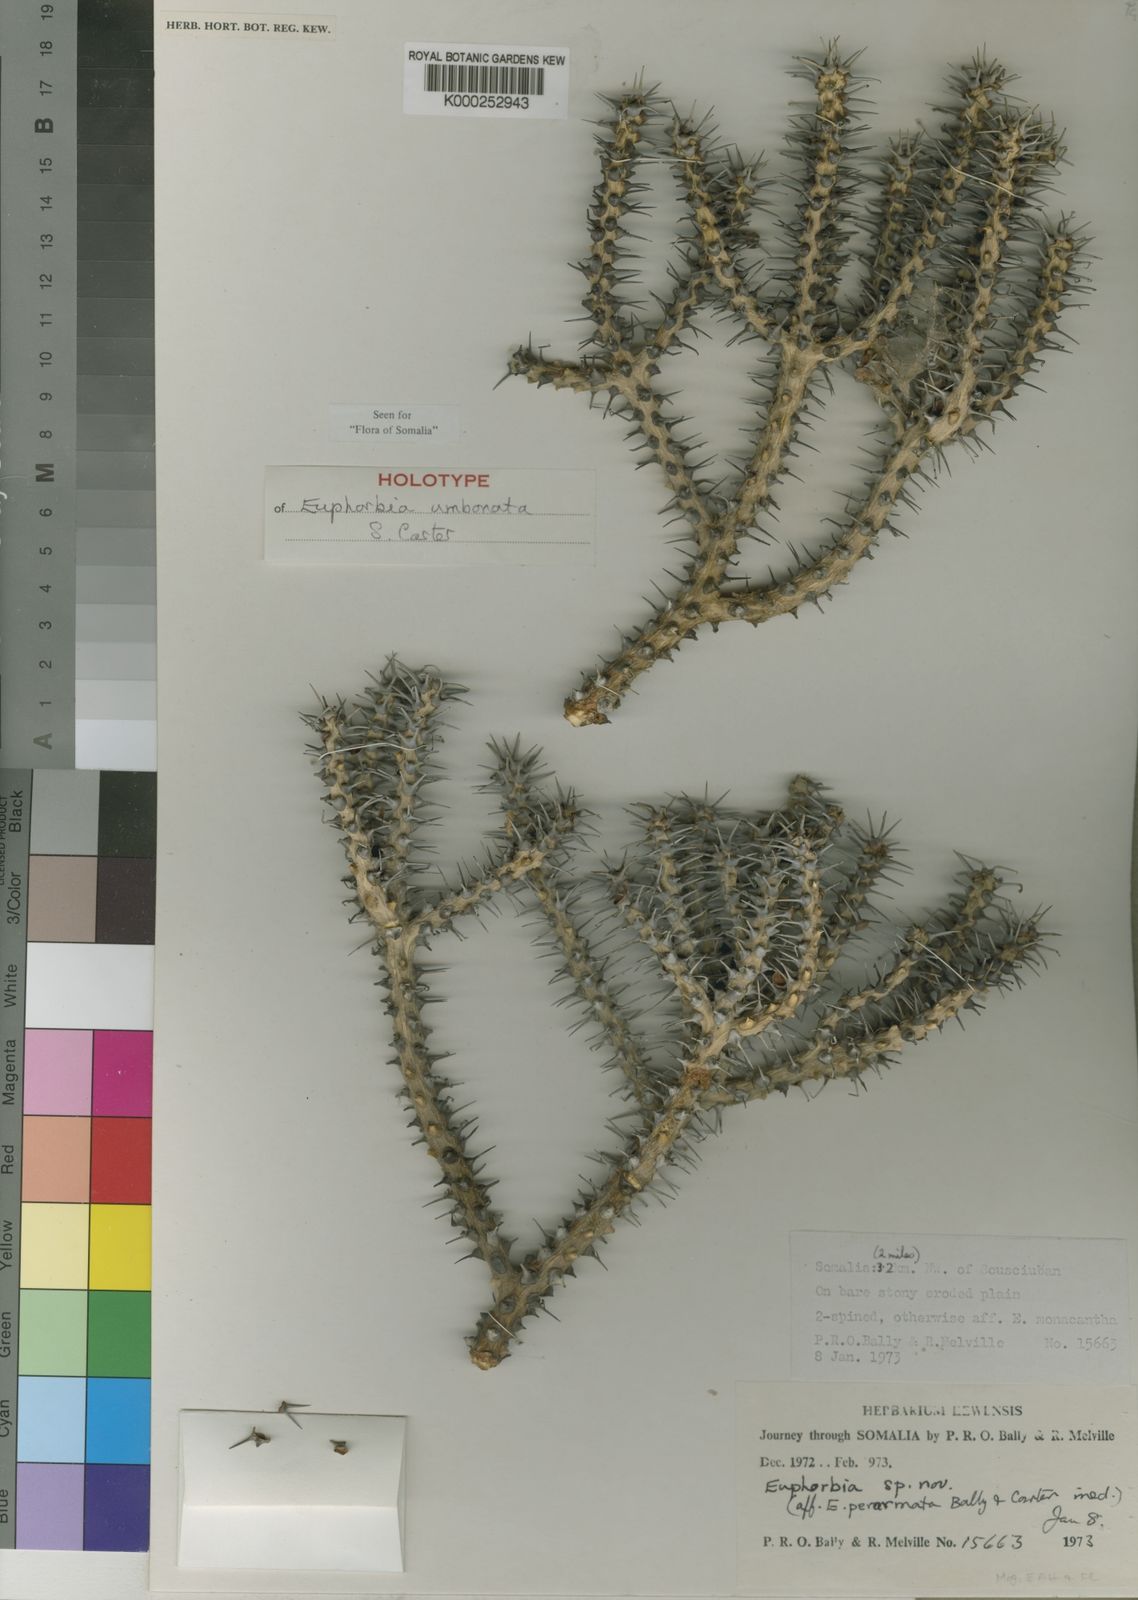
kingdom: Plantae
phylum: Tracheophyta
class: Magnoliopsida
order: Malpighiales
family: Euphorbiaceae
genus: Euphorbia
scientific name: Euphorbia umbonata
